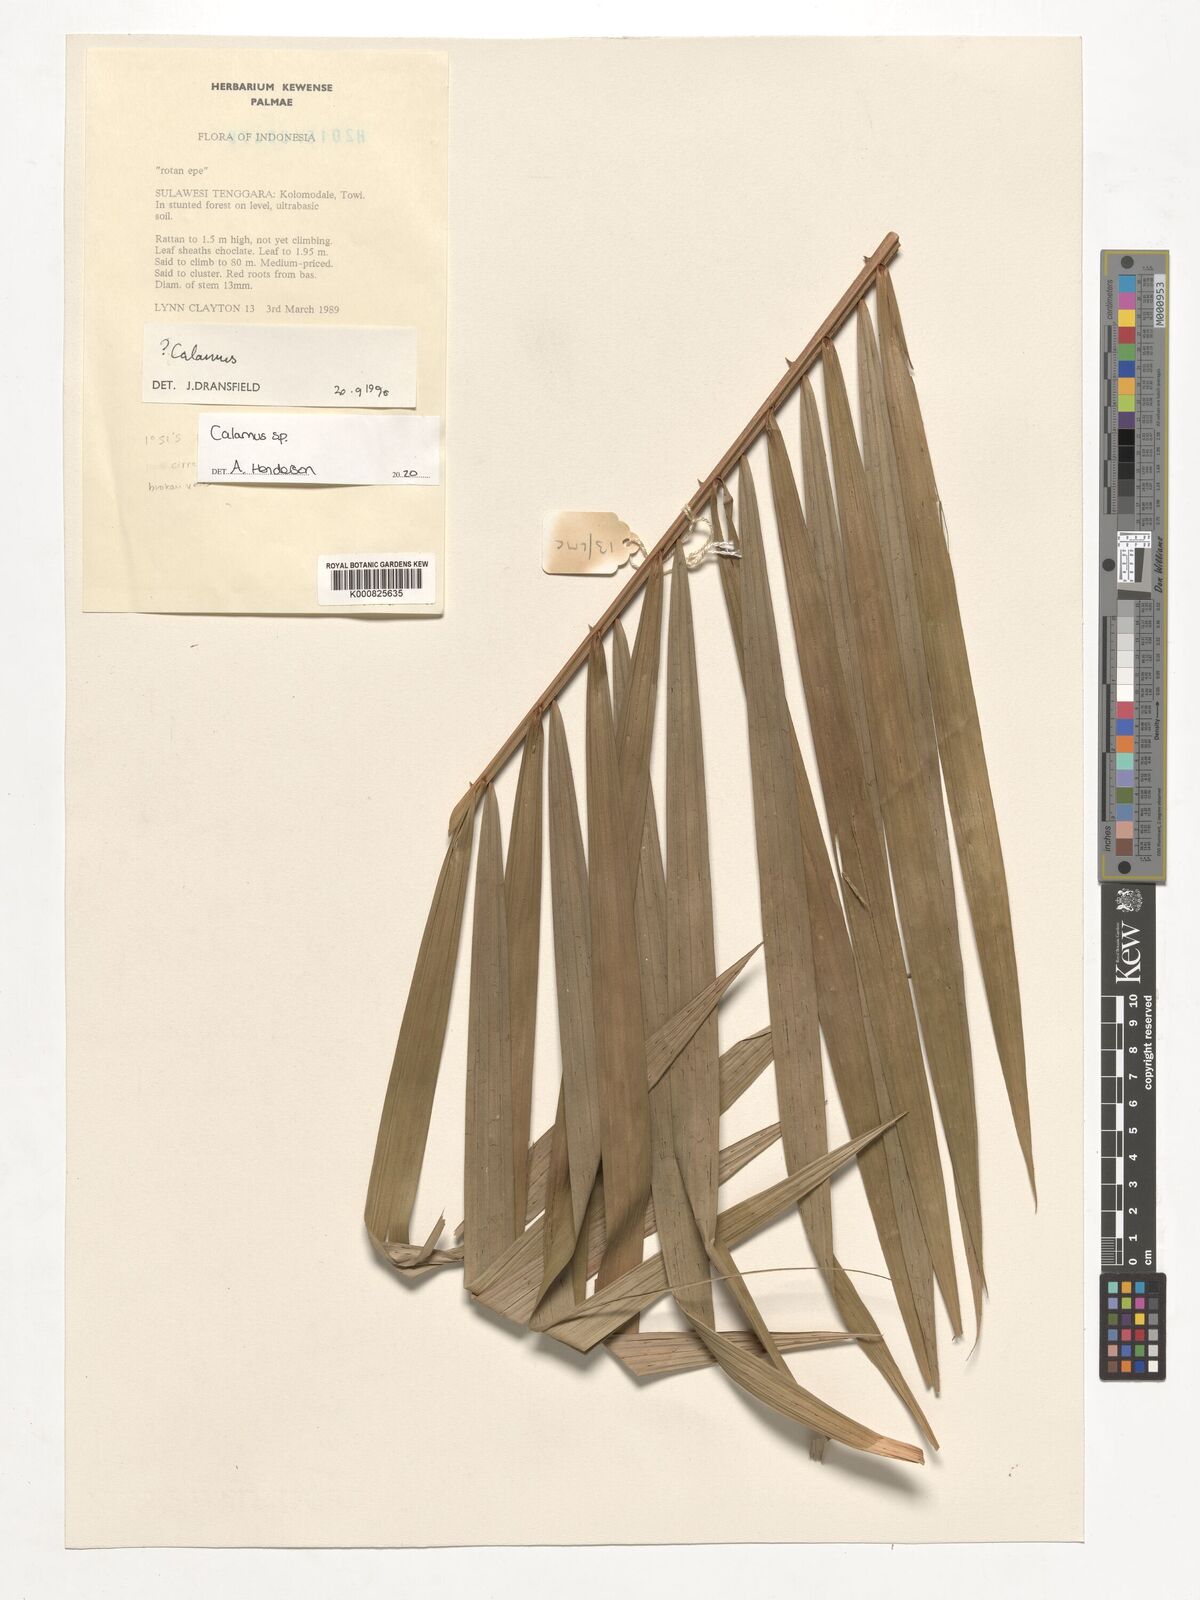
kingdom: Plantae
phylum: Tracheophyta
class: Liliopsida
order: Arecales
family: Arecaceae
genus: Calamus
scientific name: Calamus
